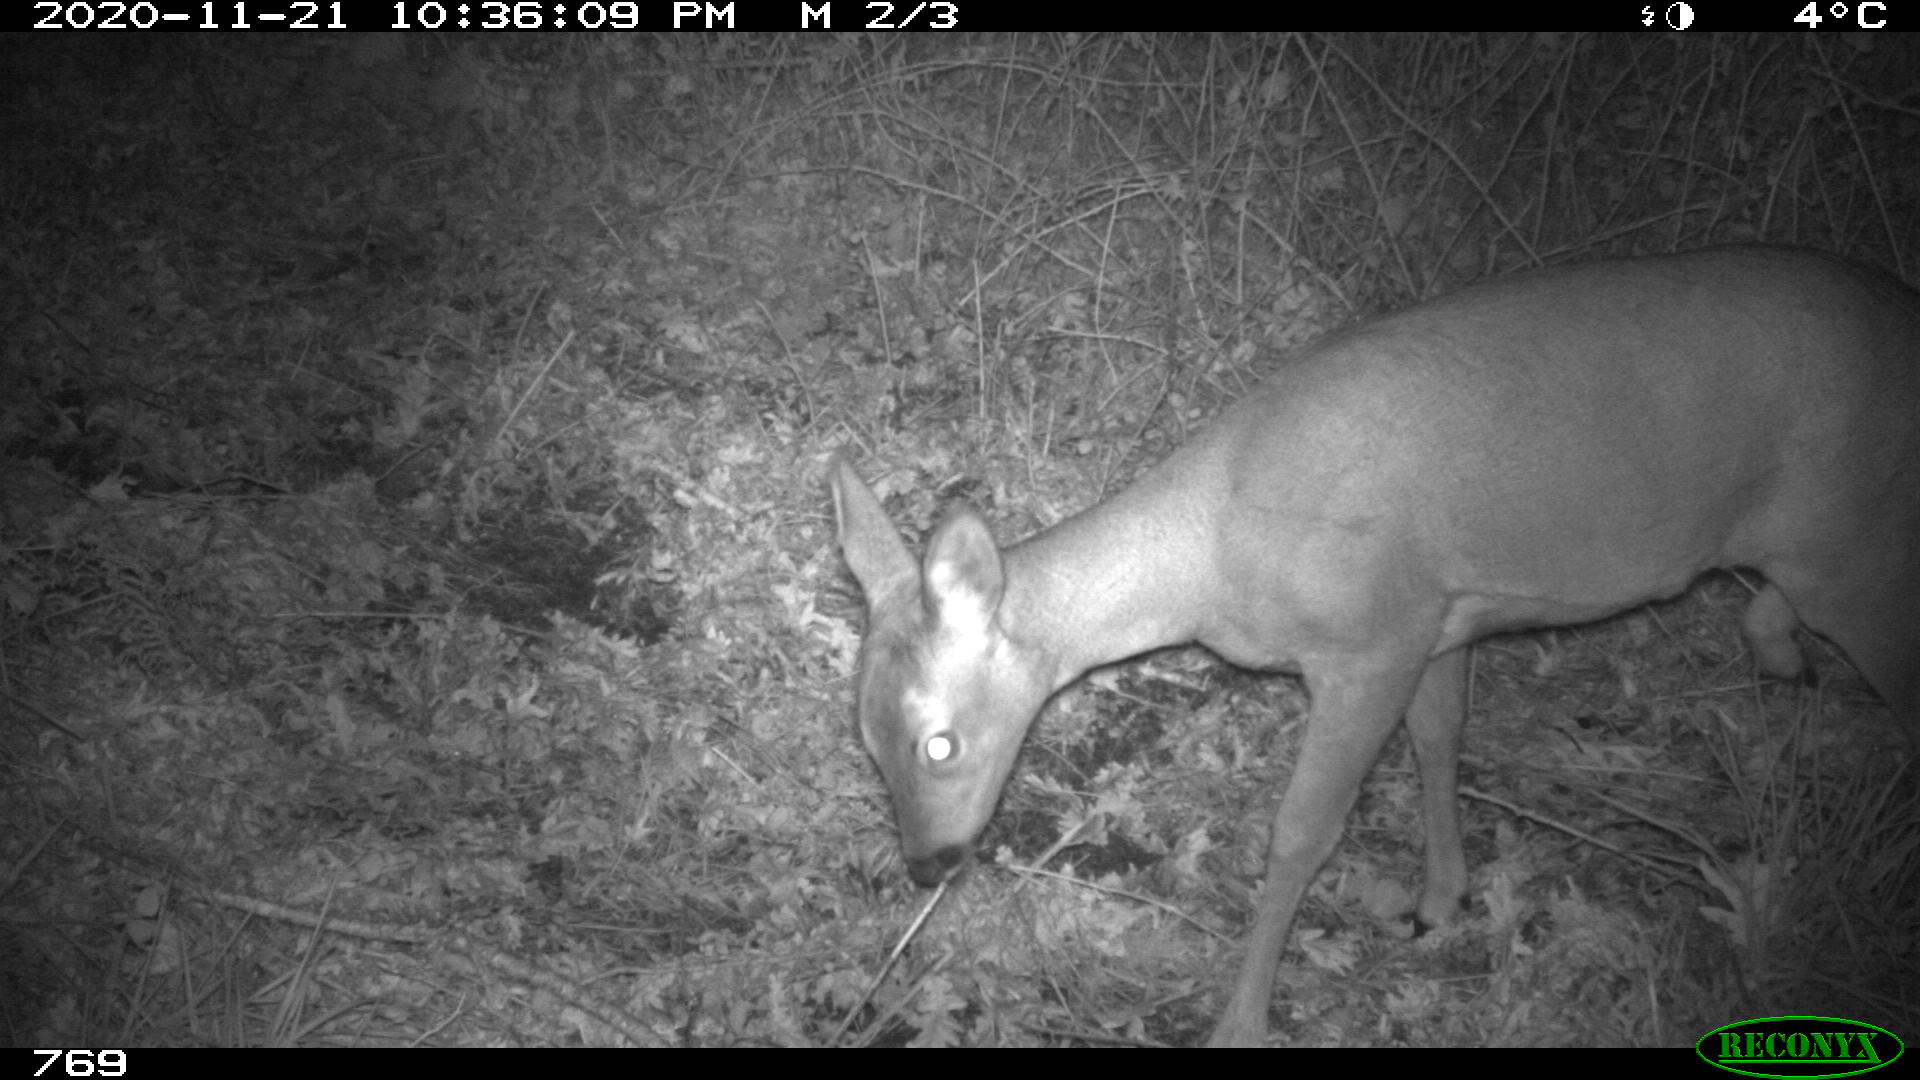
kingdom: Animalia
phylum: Chordata
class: Mammalia
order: Artiodactyla
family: Cervidae
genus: Capreolus
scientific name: Capreolus capreolus
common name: Western roe deer
